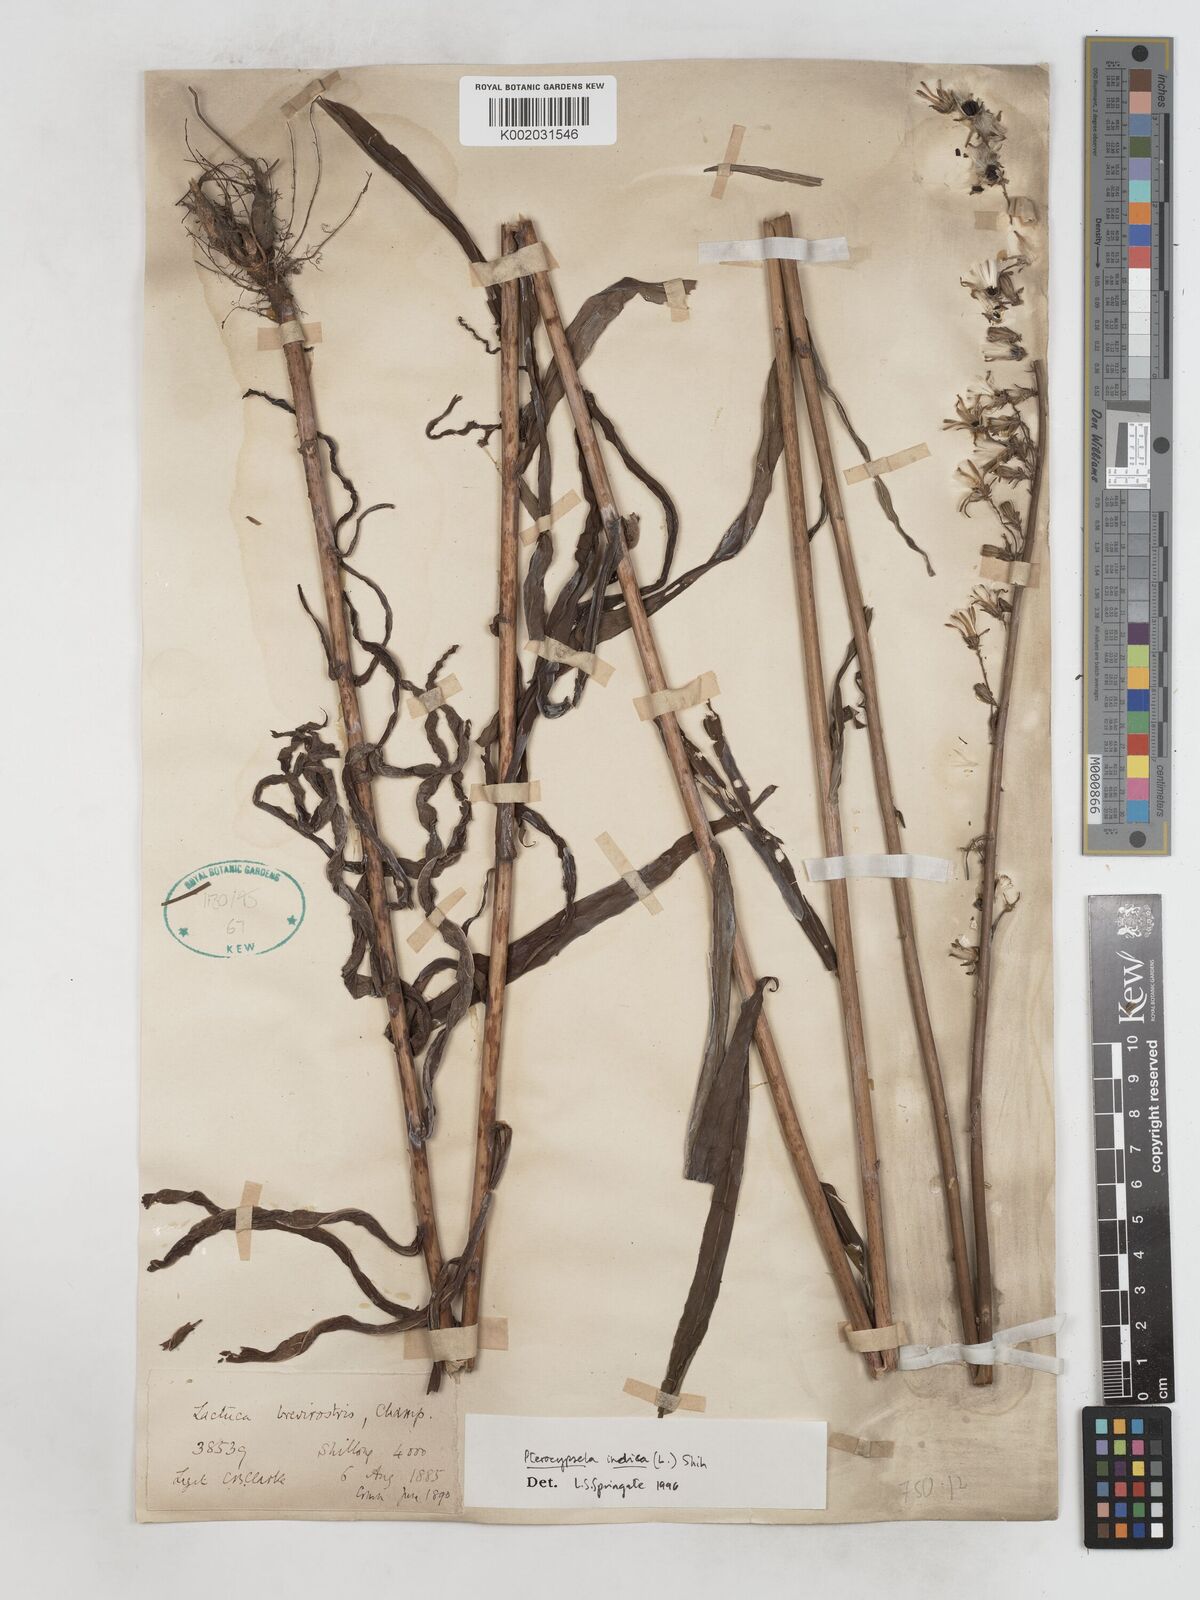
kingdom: Plantae
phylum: Tracheophyta
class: Magnoliopsida
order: Asterales
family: Asteraceae
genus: Lactuca
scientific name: Lactuca indica
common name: Wild lettuce
